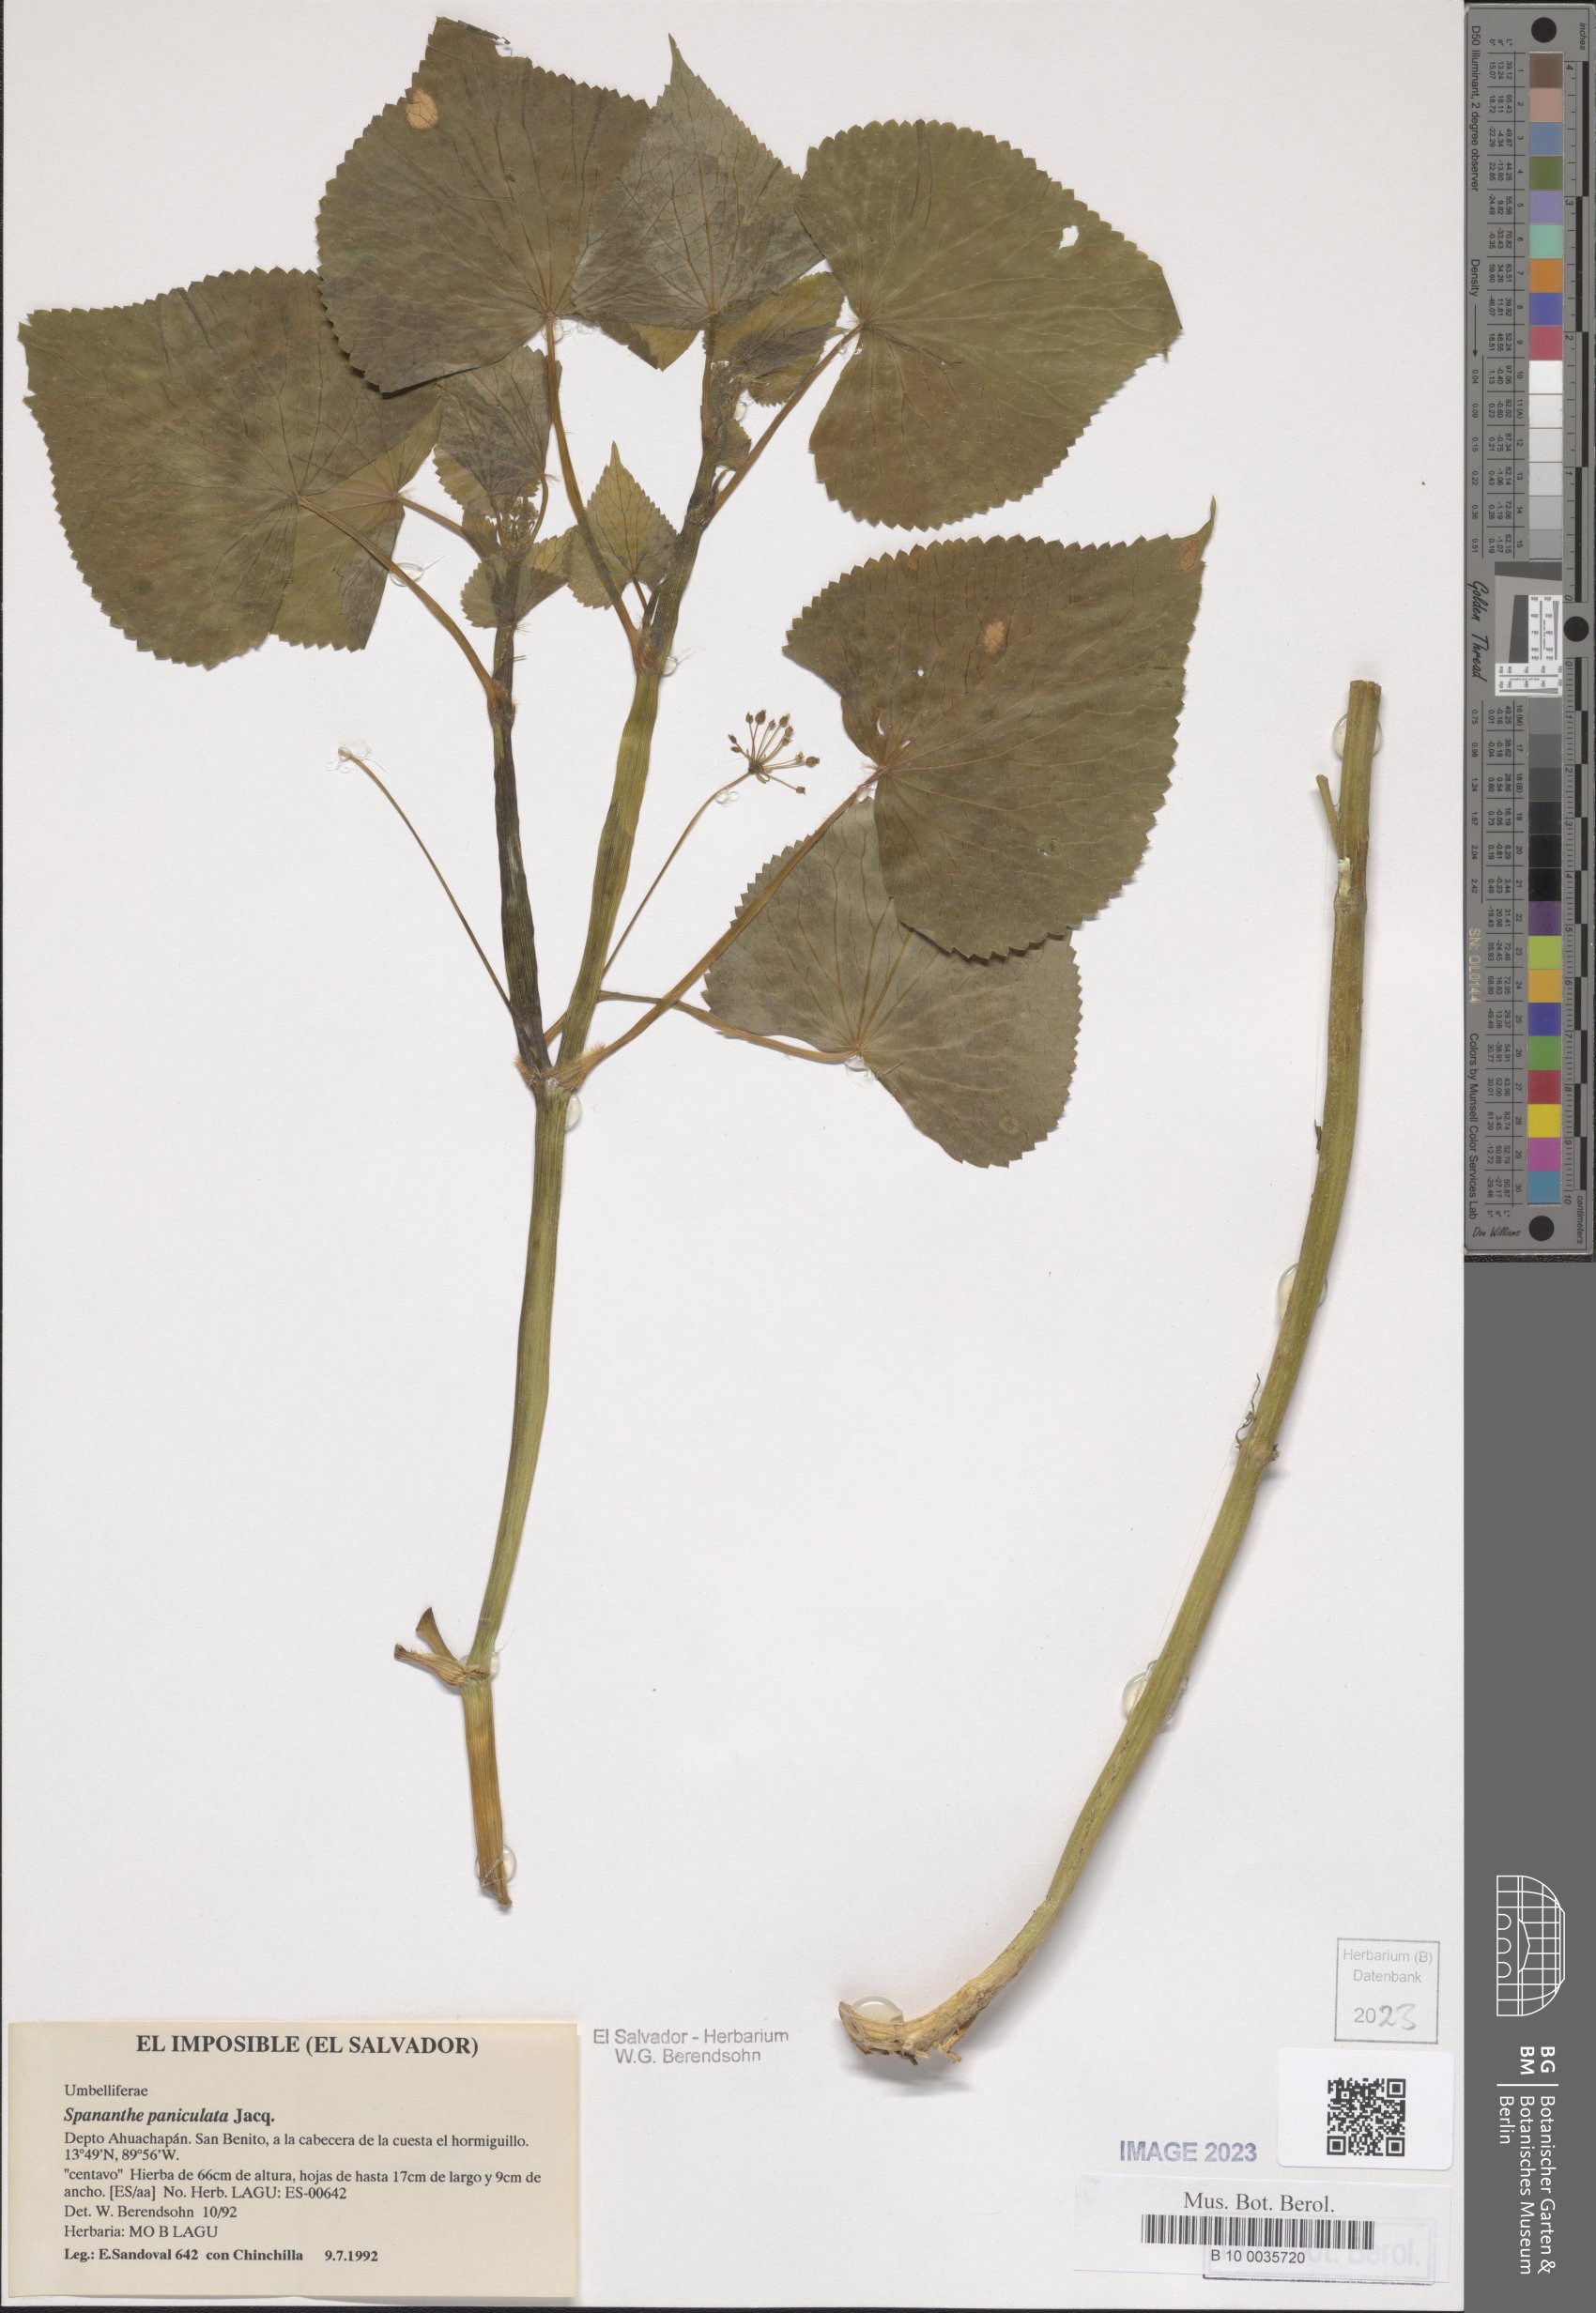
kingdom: Plantae
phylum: Tracheophyta
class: Magnoliopsida
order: Apiales
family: Apiaceae
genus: Spananthe
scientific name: Spananthe paniculata
